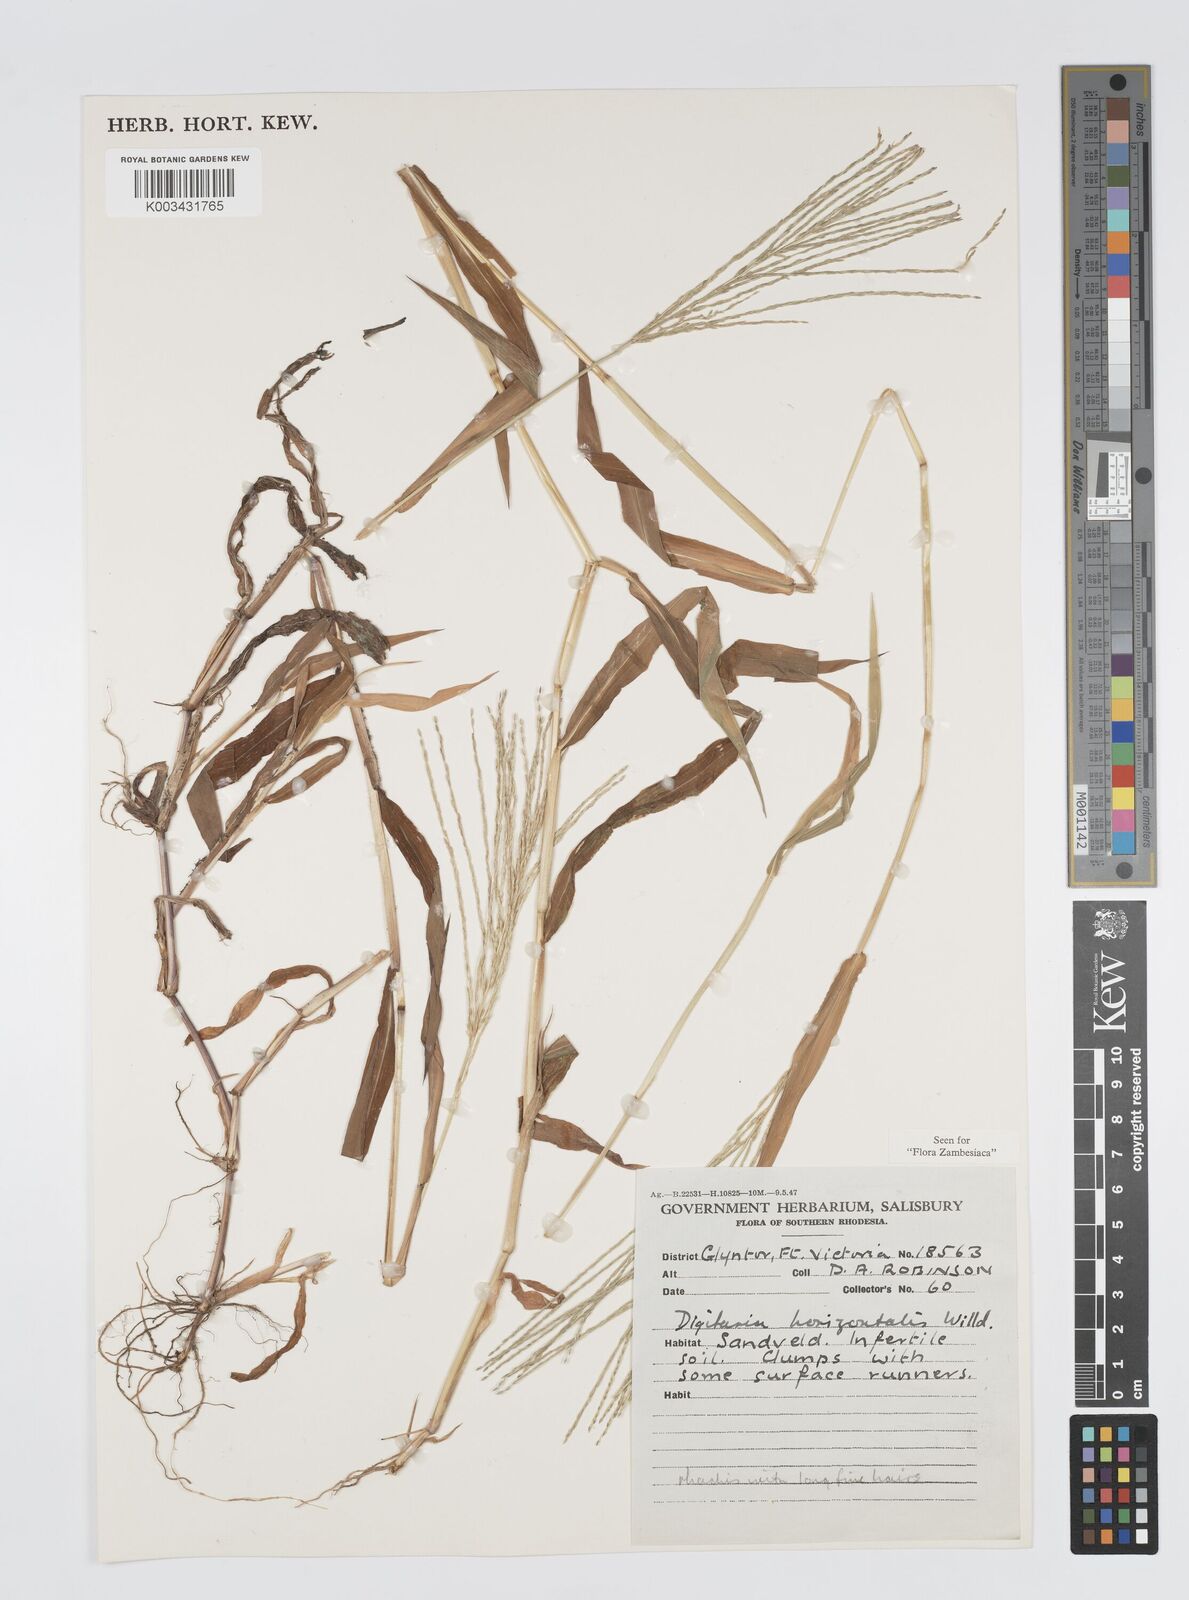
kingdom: Plantae
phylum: Tracheophyta
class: Liliopsida
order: Poales
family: Poaceae
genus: Digitaria
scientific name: Digitaria nuda
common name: Naked crabgrass
